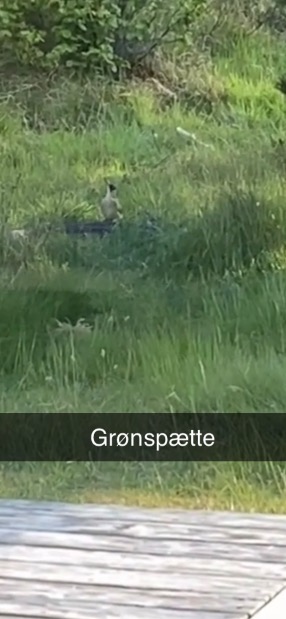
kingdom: Animalia
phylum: Chordata
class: Aves
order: Piciformes
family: Picidae
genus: Picus
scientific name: Picus viridis
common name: Grønspætte
